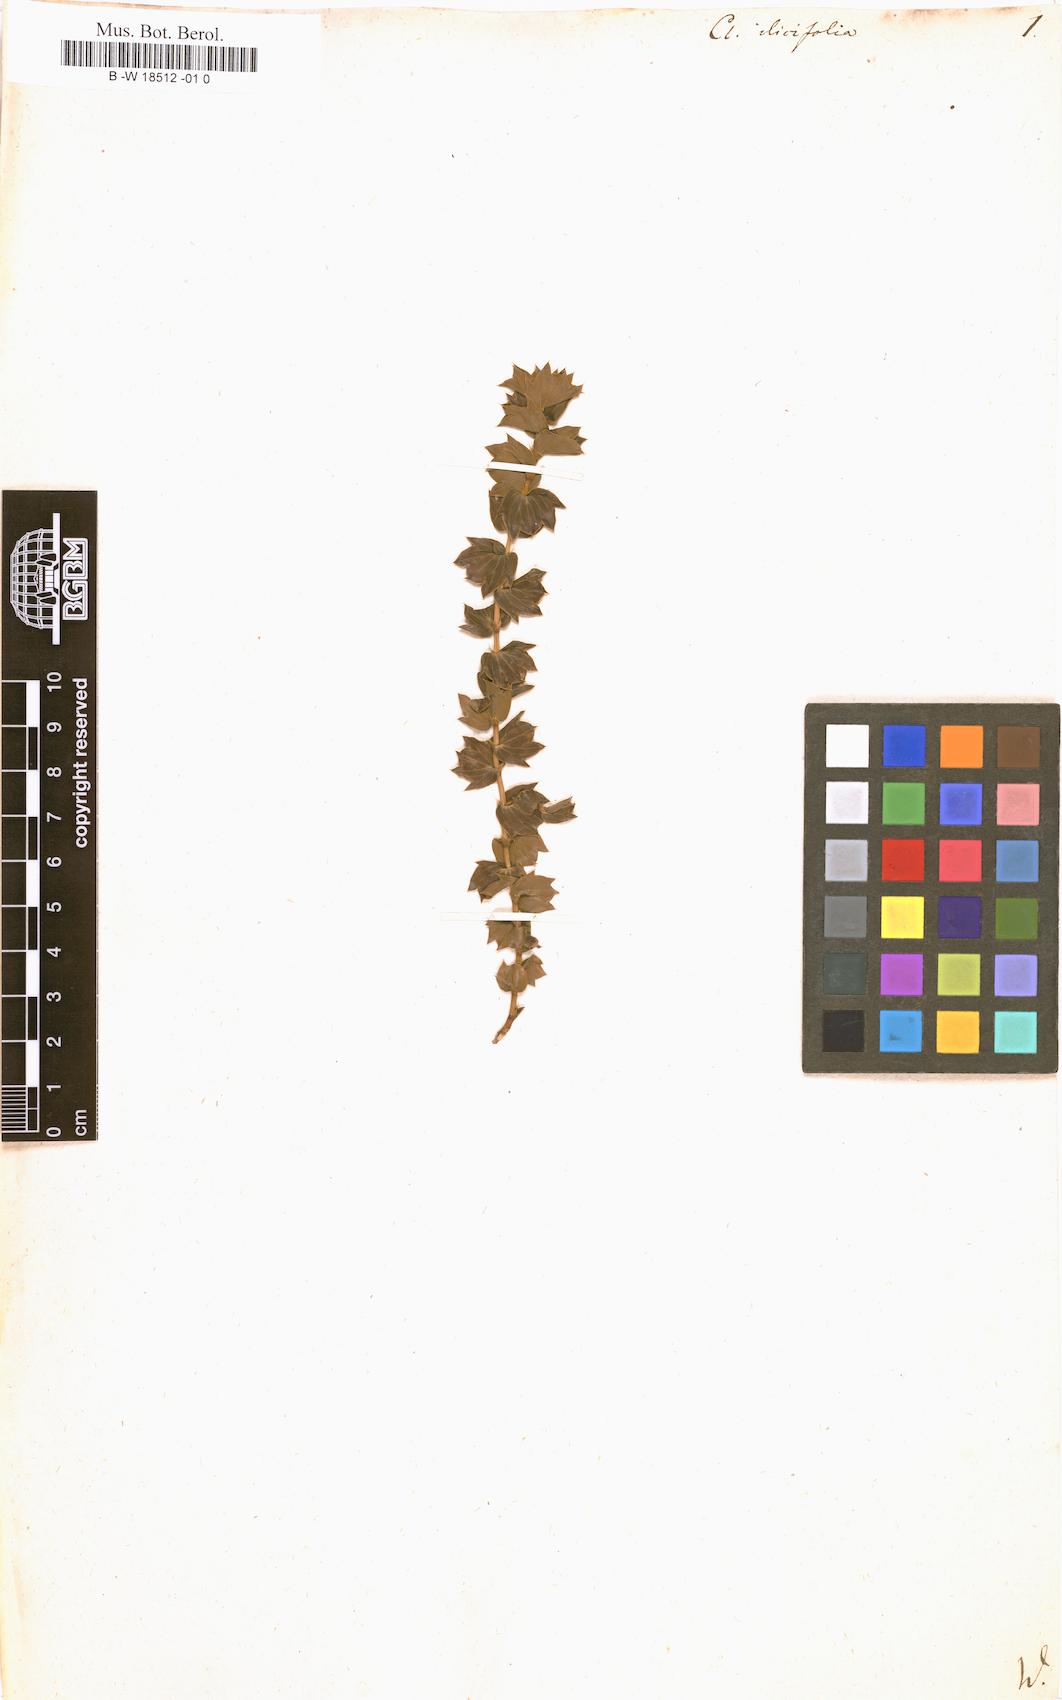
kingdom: Plantae
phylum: Tracheophyta
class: Magnoliopsida
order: Rosales
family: Rosaceae
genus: Cliffortia
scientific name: Cliffortia ilicifolia
